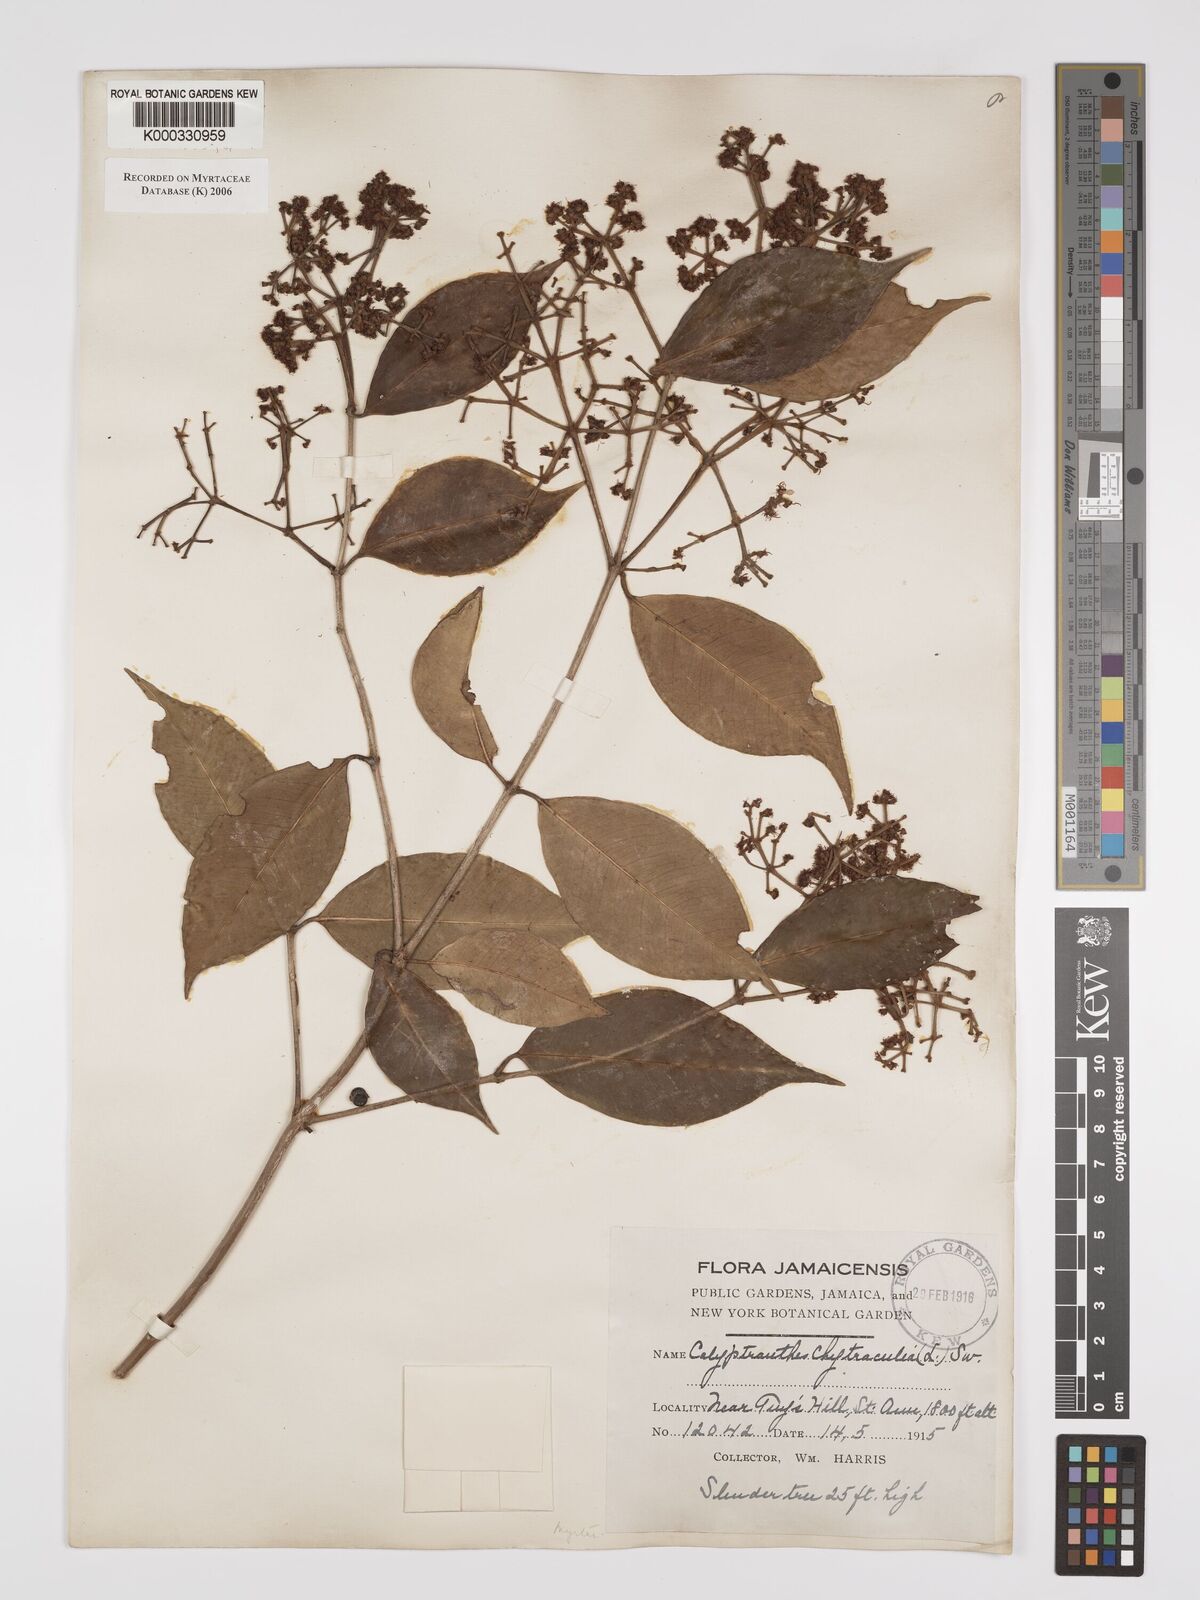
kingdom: Plantae
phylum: Tracheophyta
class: Magnoliopsida
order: Myrtales
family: Myrtaceae
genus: Myrcia
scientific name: Myrcia chytraculia
